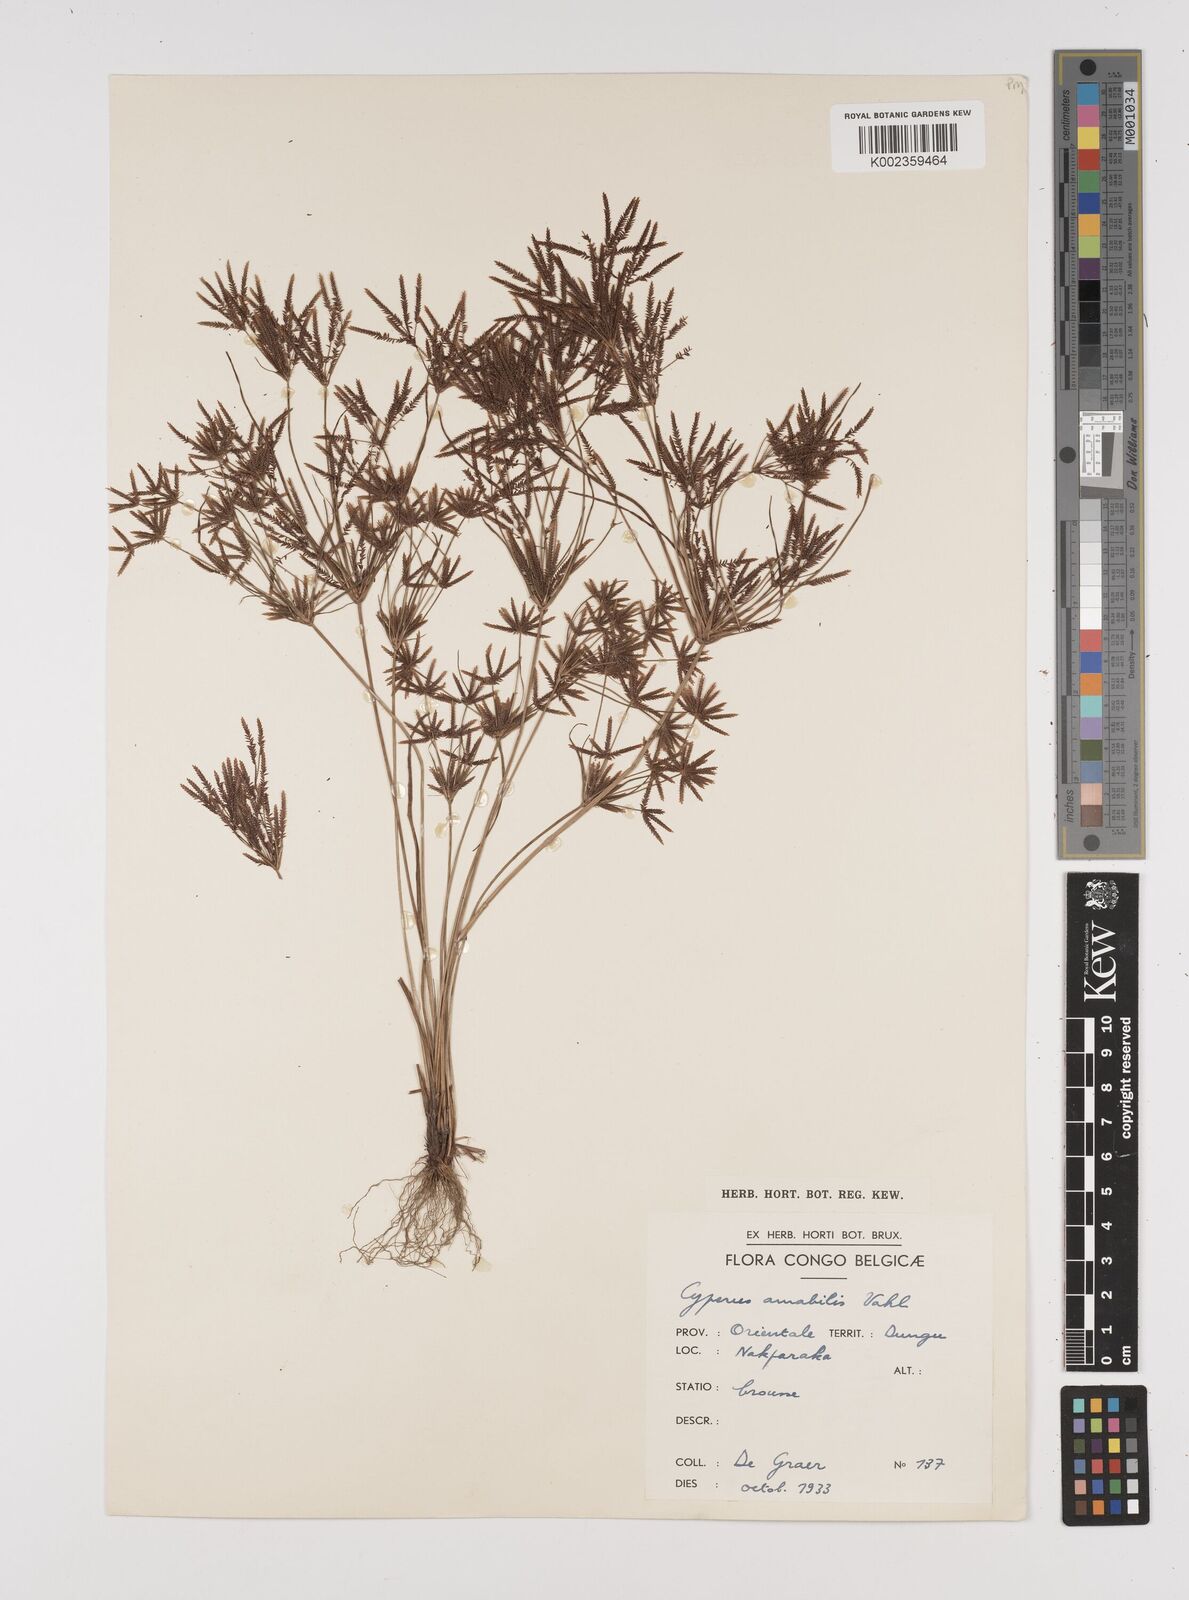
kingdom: Plantae
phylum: Tracheophyta
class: Liliopsida
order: Poales
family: Cyperaceae
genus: Cyperus
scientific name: Cyperus amabilis
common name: Foothill flat sedge
